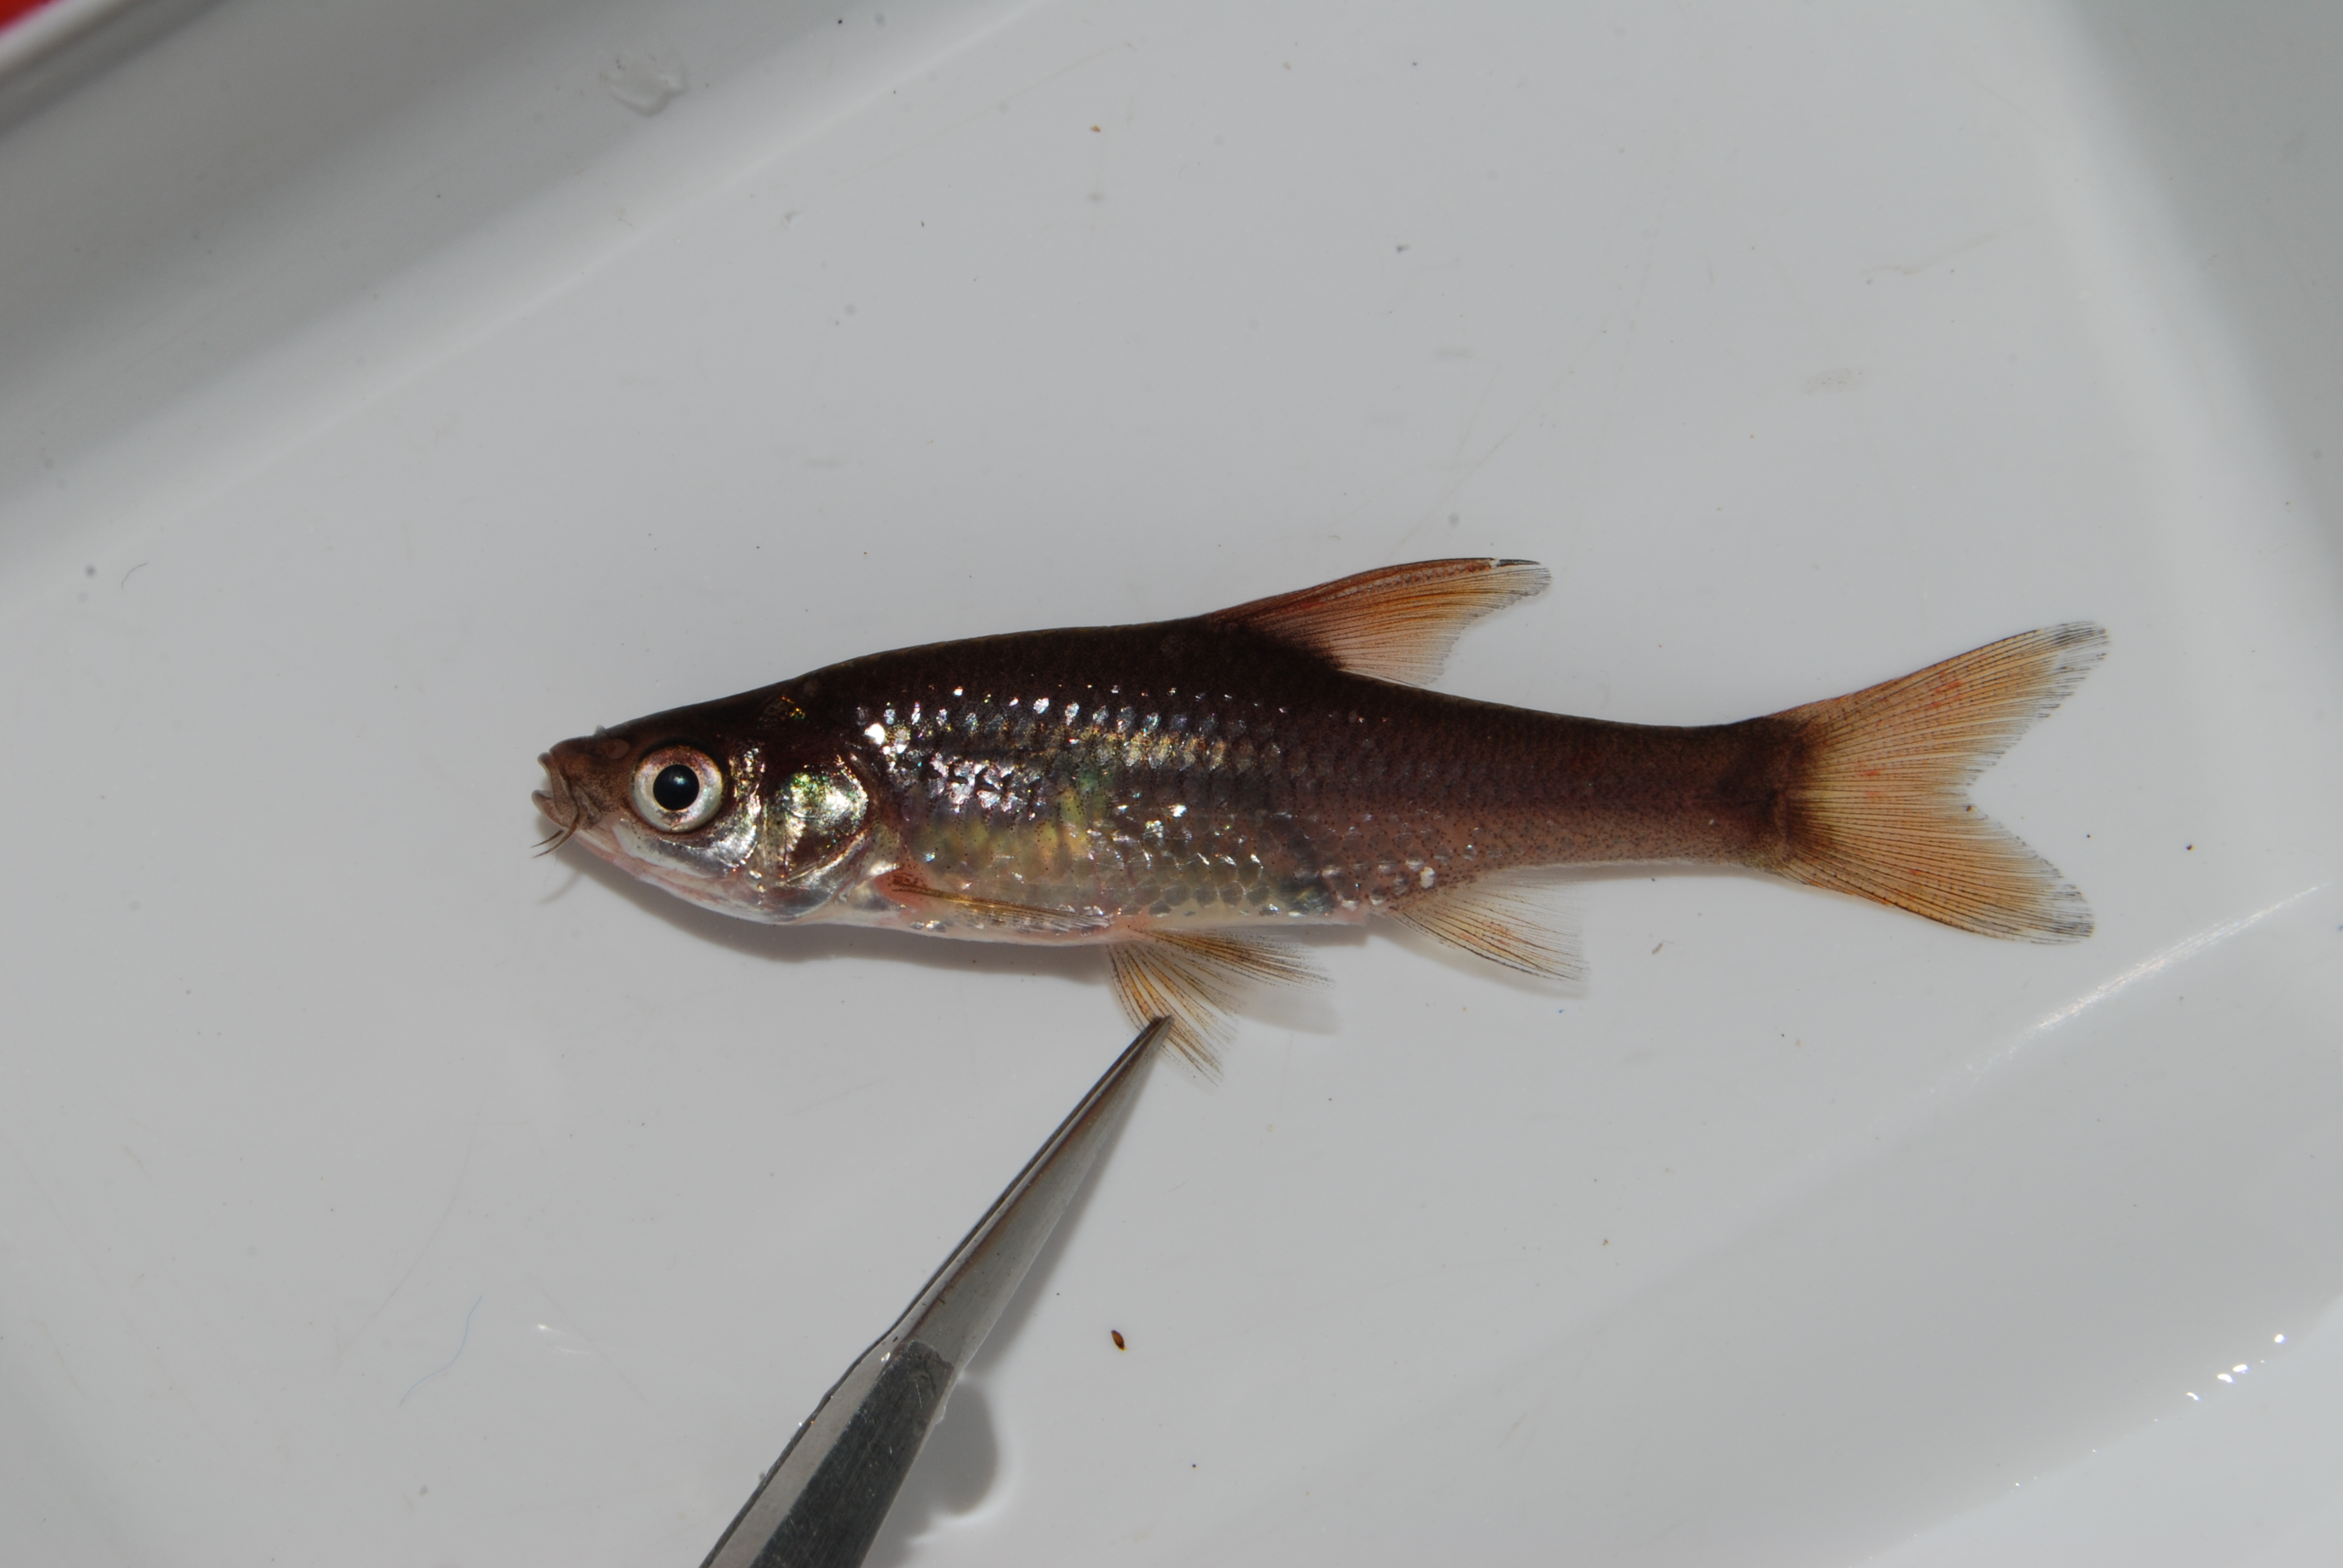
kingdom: Animalia
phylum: Chordata
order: Cypriniformes
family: Cyprinidae
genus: Enteromius
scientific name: Enteromius paludinosus
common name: Straightfin barb
